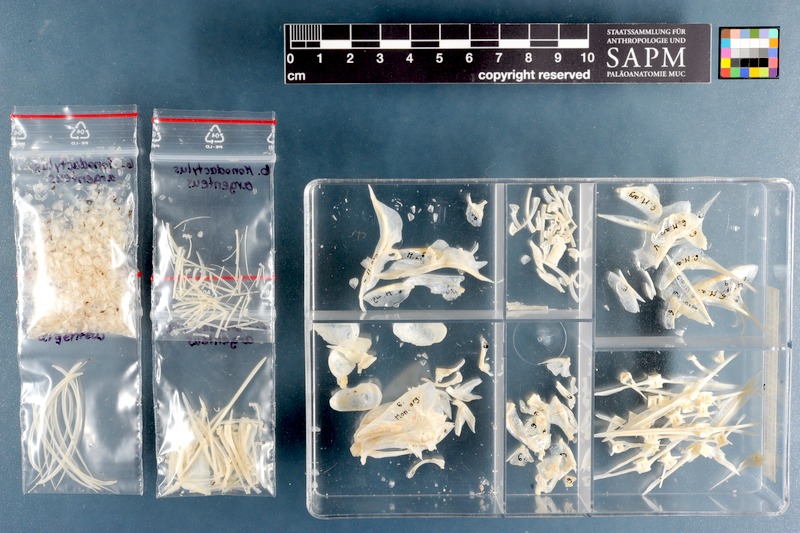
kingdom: Animalia
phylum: Chordata
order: Perciformes
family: Monodactylidae
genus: Monodactylus
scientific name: Monodactylus argenteus
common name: Silver moony
